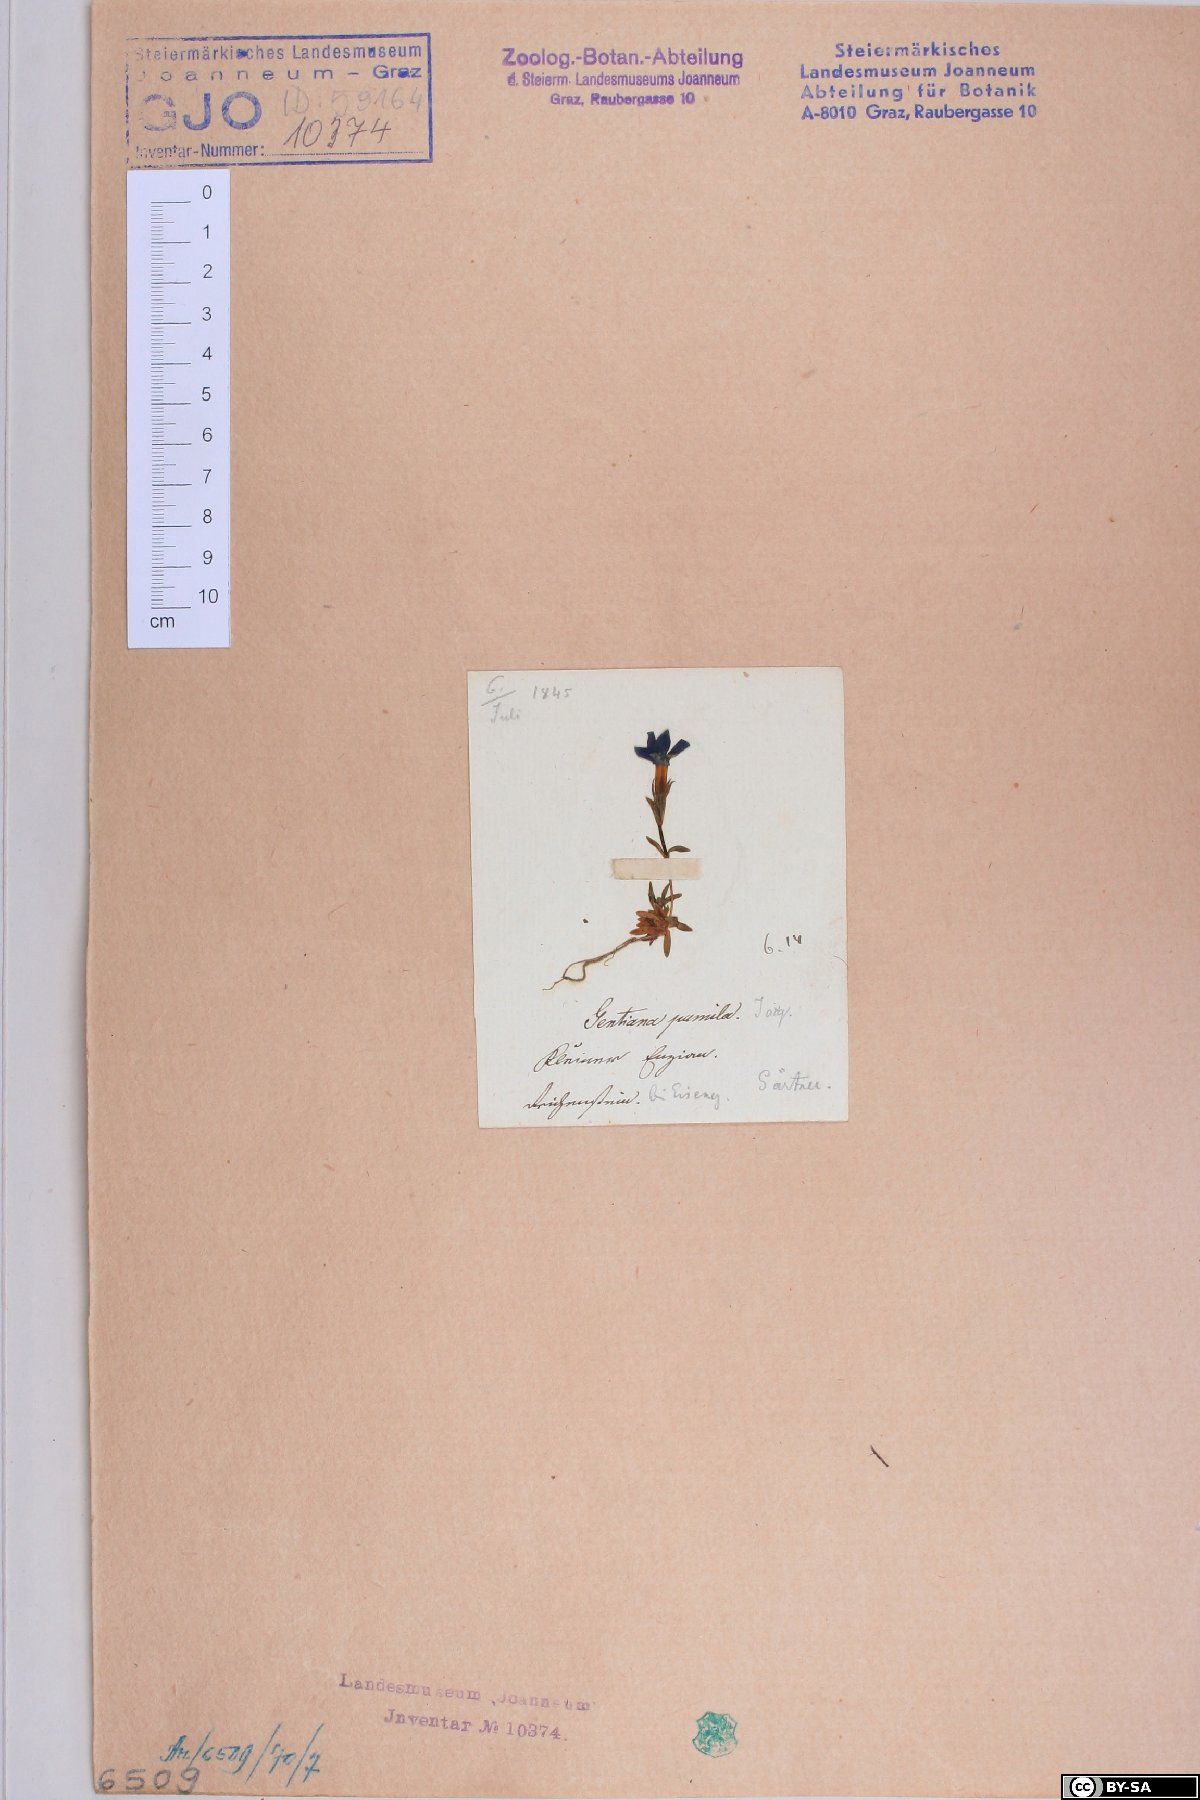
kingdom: Plantae
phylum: Tracheophyta
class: Magnoliopsida
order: Gentianales
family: Gentianaceae
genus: Gentiana
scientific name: Gentiana pumila
